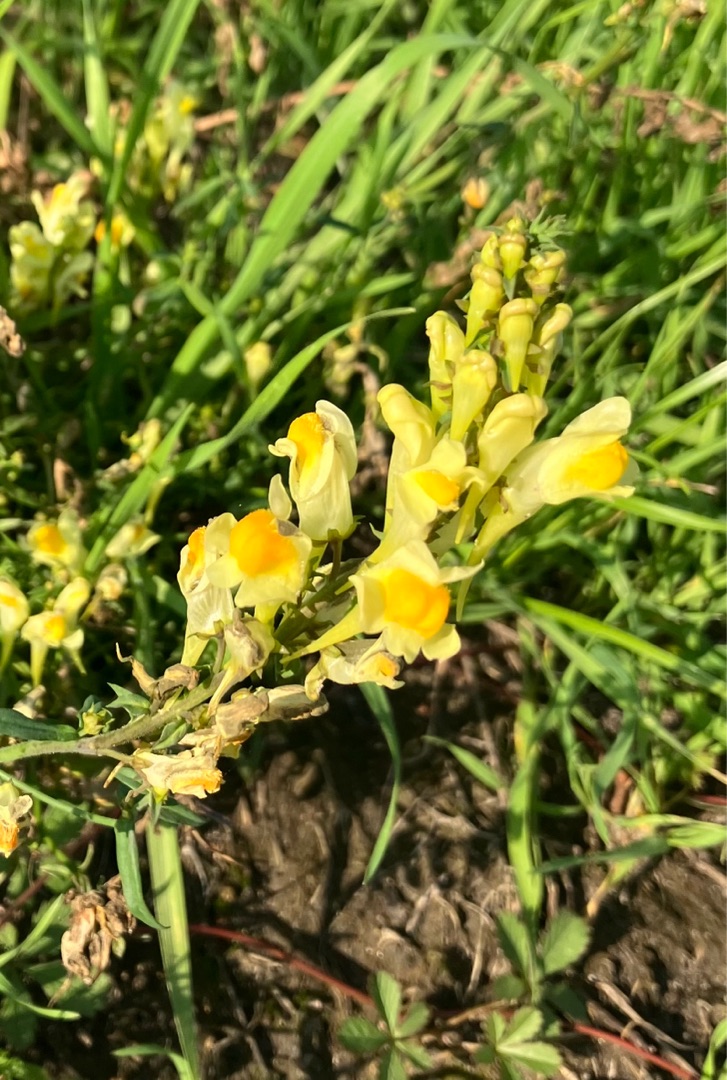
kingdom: Plantae
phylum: Tracheophyta
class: Magnoliopsida
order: Lamiales
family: Plantaginaceae
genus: Linaria
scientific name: Linaria vulgaris
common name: Almindelig torskemund
